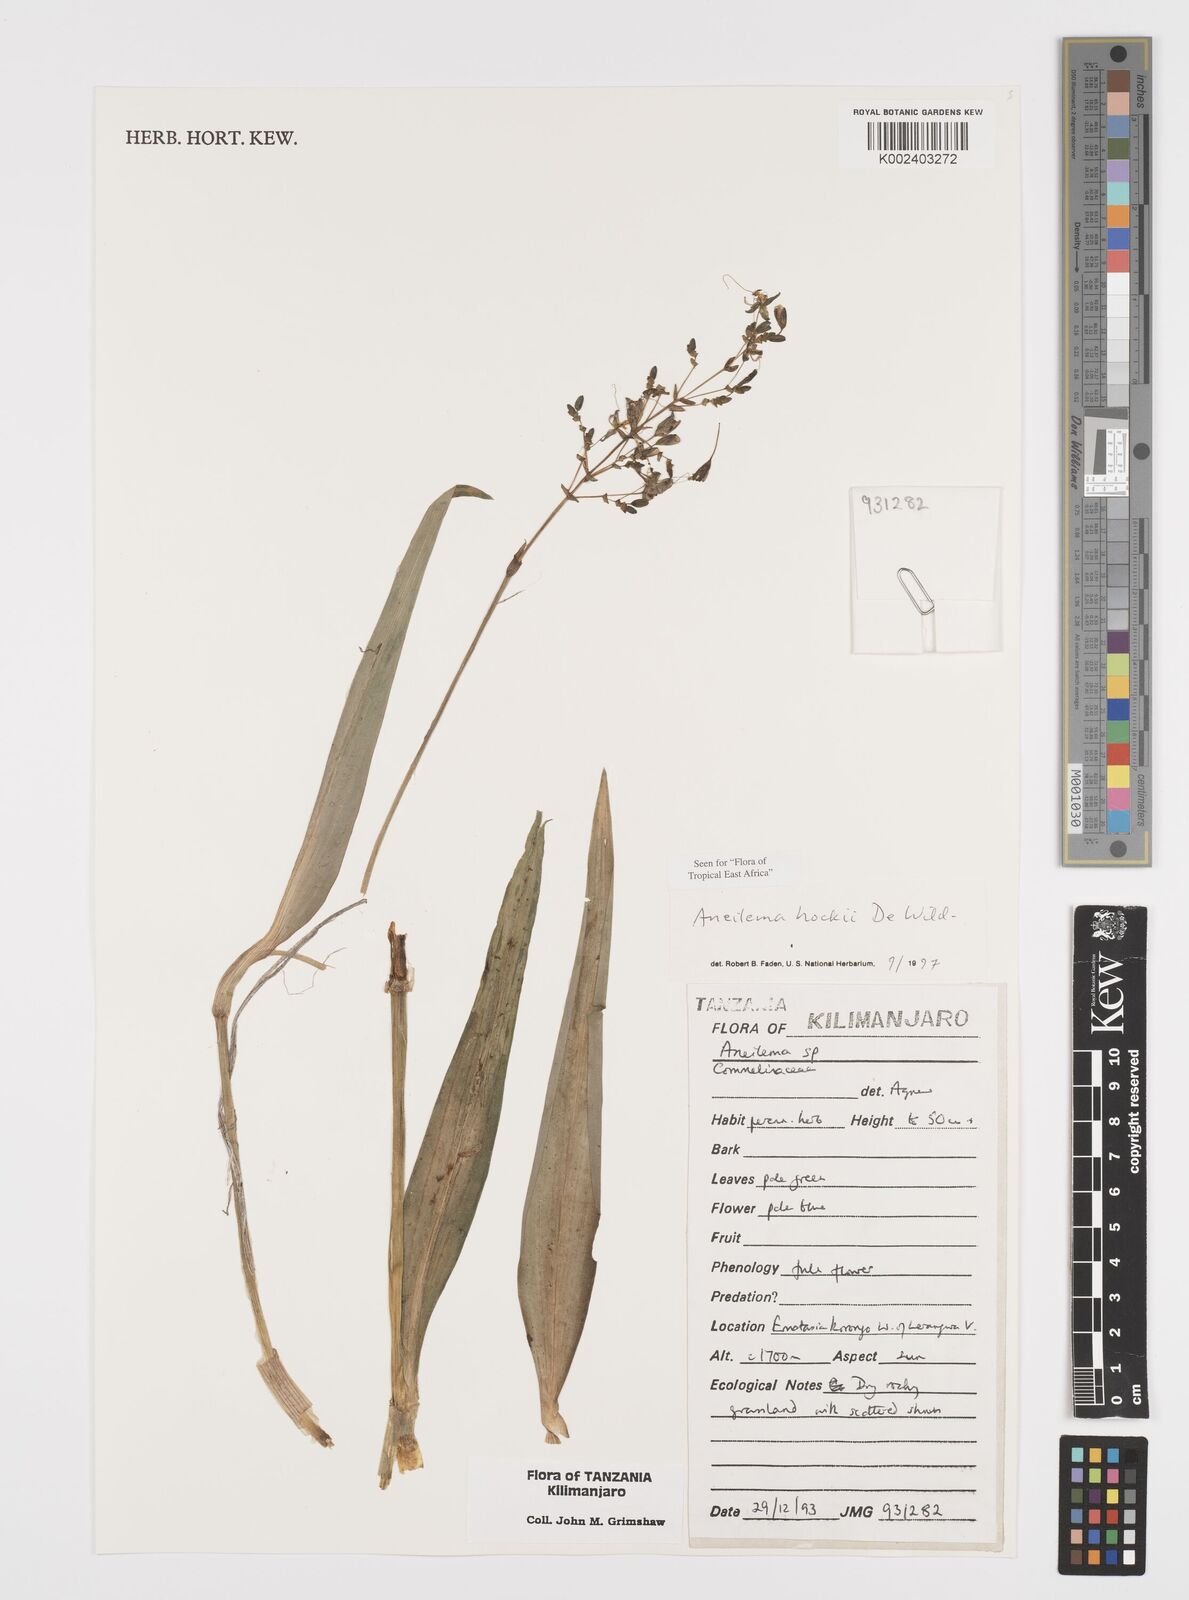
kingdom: Plantae
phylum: Tracheophyta
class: Liliopsida
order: Commelinales
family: Commelinaceae
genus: Aneilema
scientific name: Aneilema hockii
